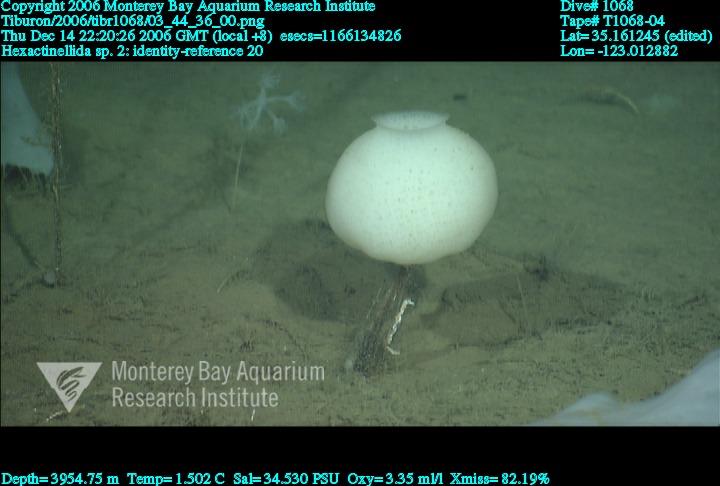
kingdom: Animalia
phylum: Porifera
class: Hexactinellida
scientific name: Hexactinellida
